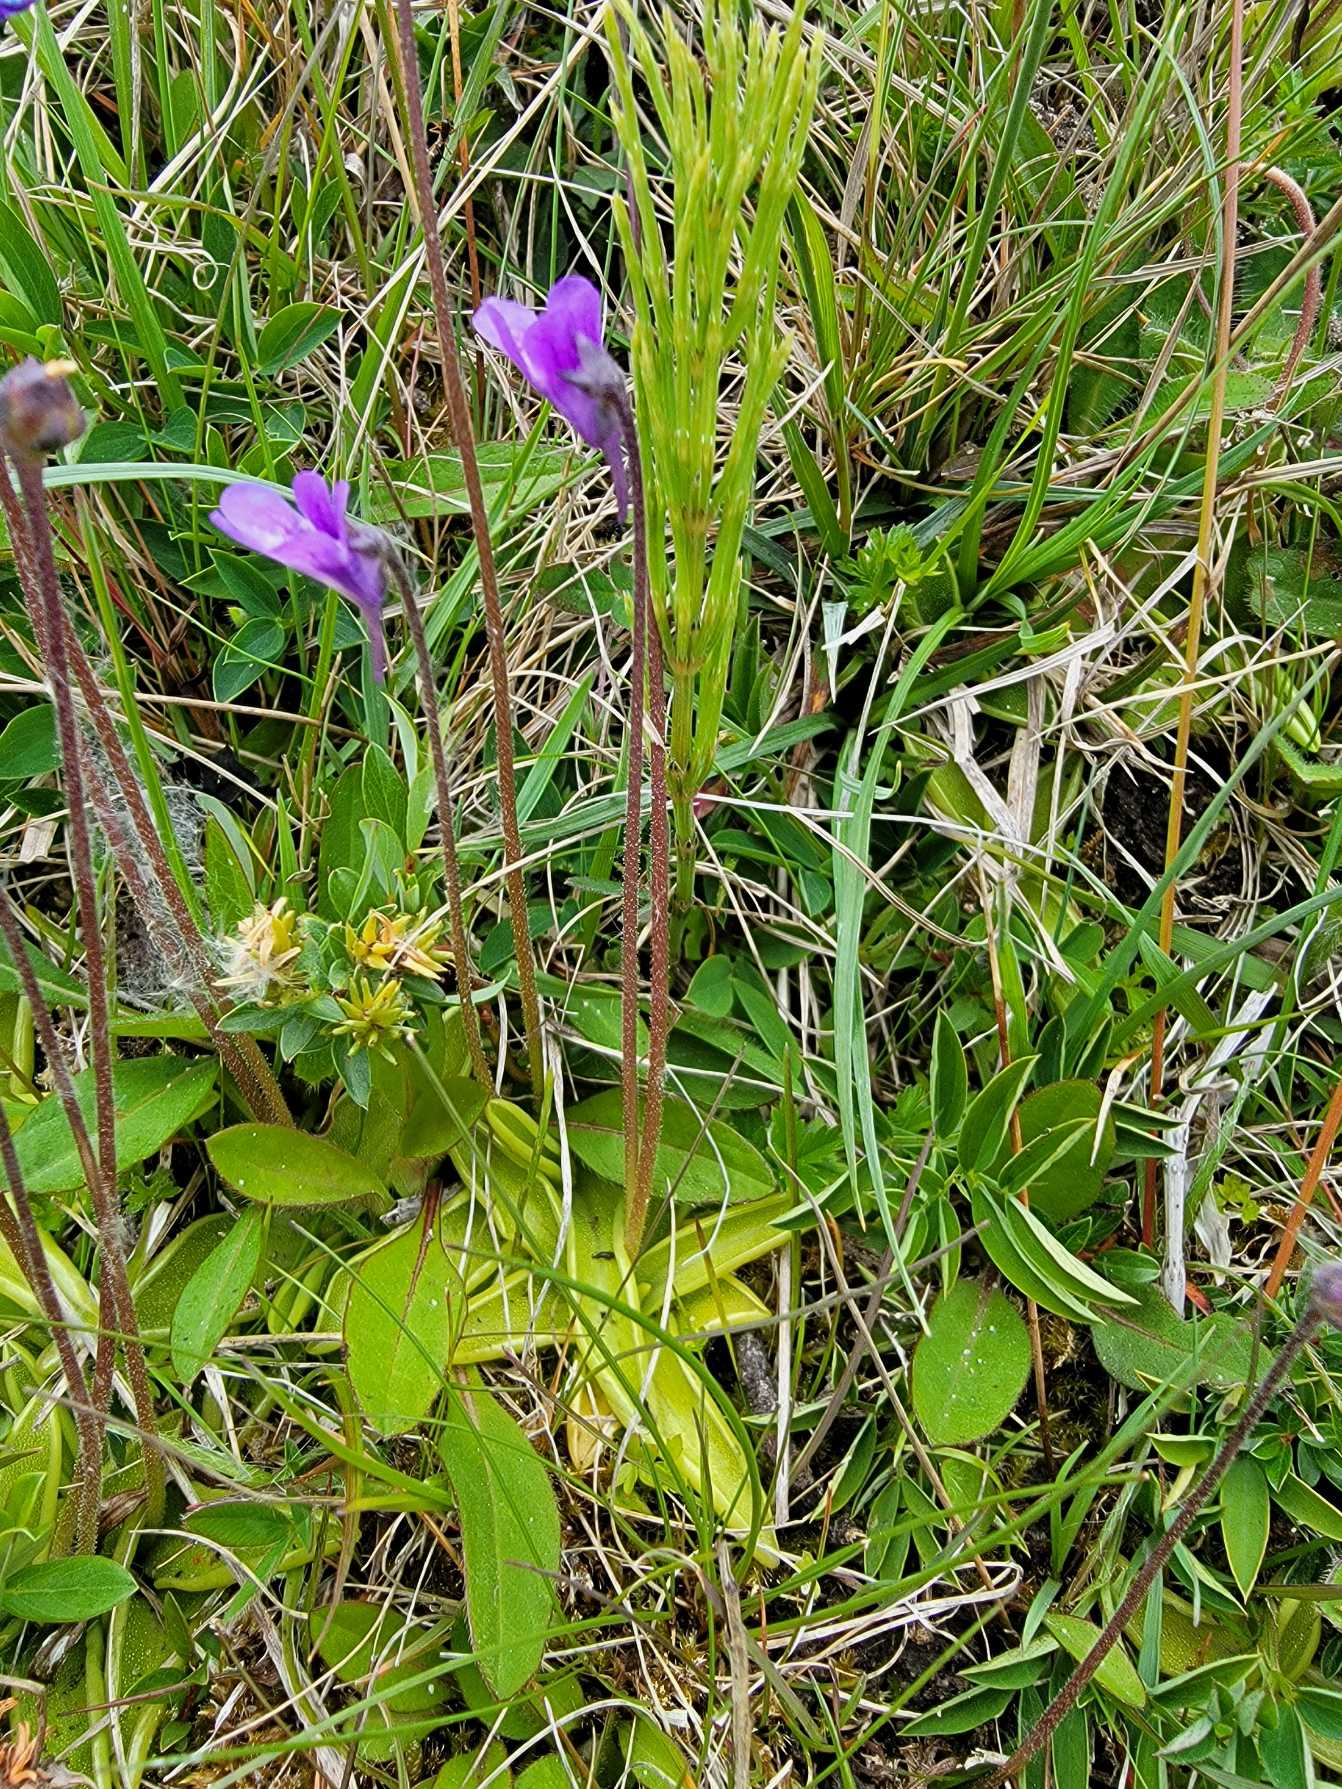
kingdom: Plantae
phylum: Tracheophyta
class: Magnoliopsida
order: Lamiales
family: Lentibulariaceae
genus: Pinguicula
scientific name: Pinguicula vulgaris
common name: Vibefedt
